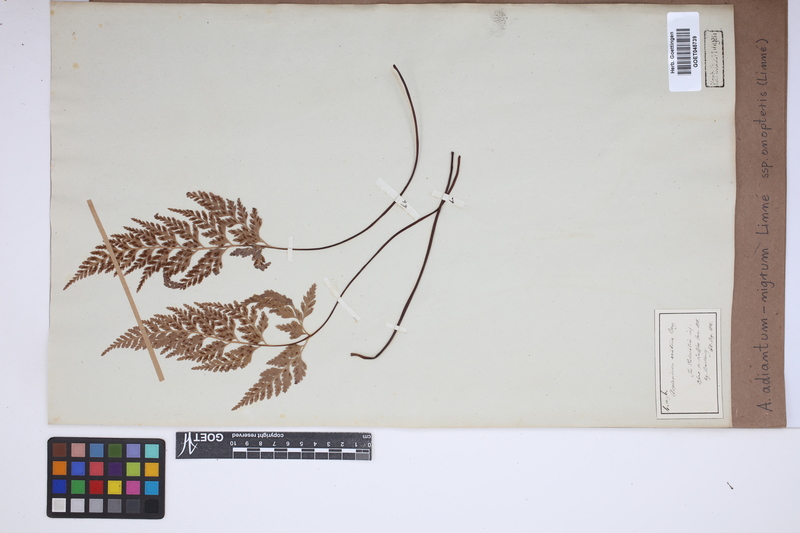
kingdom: Plantae
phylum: Tracheophyta
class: Polypodiopsida
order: Polypodiales
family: Aspleniaceae
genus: Asplenium
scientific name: Asplenium onopteris
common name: Irish spleenwort
